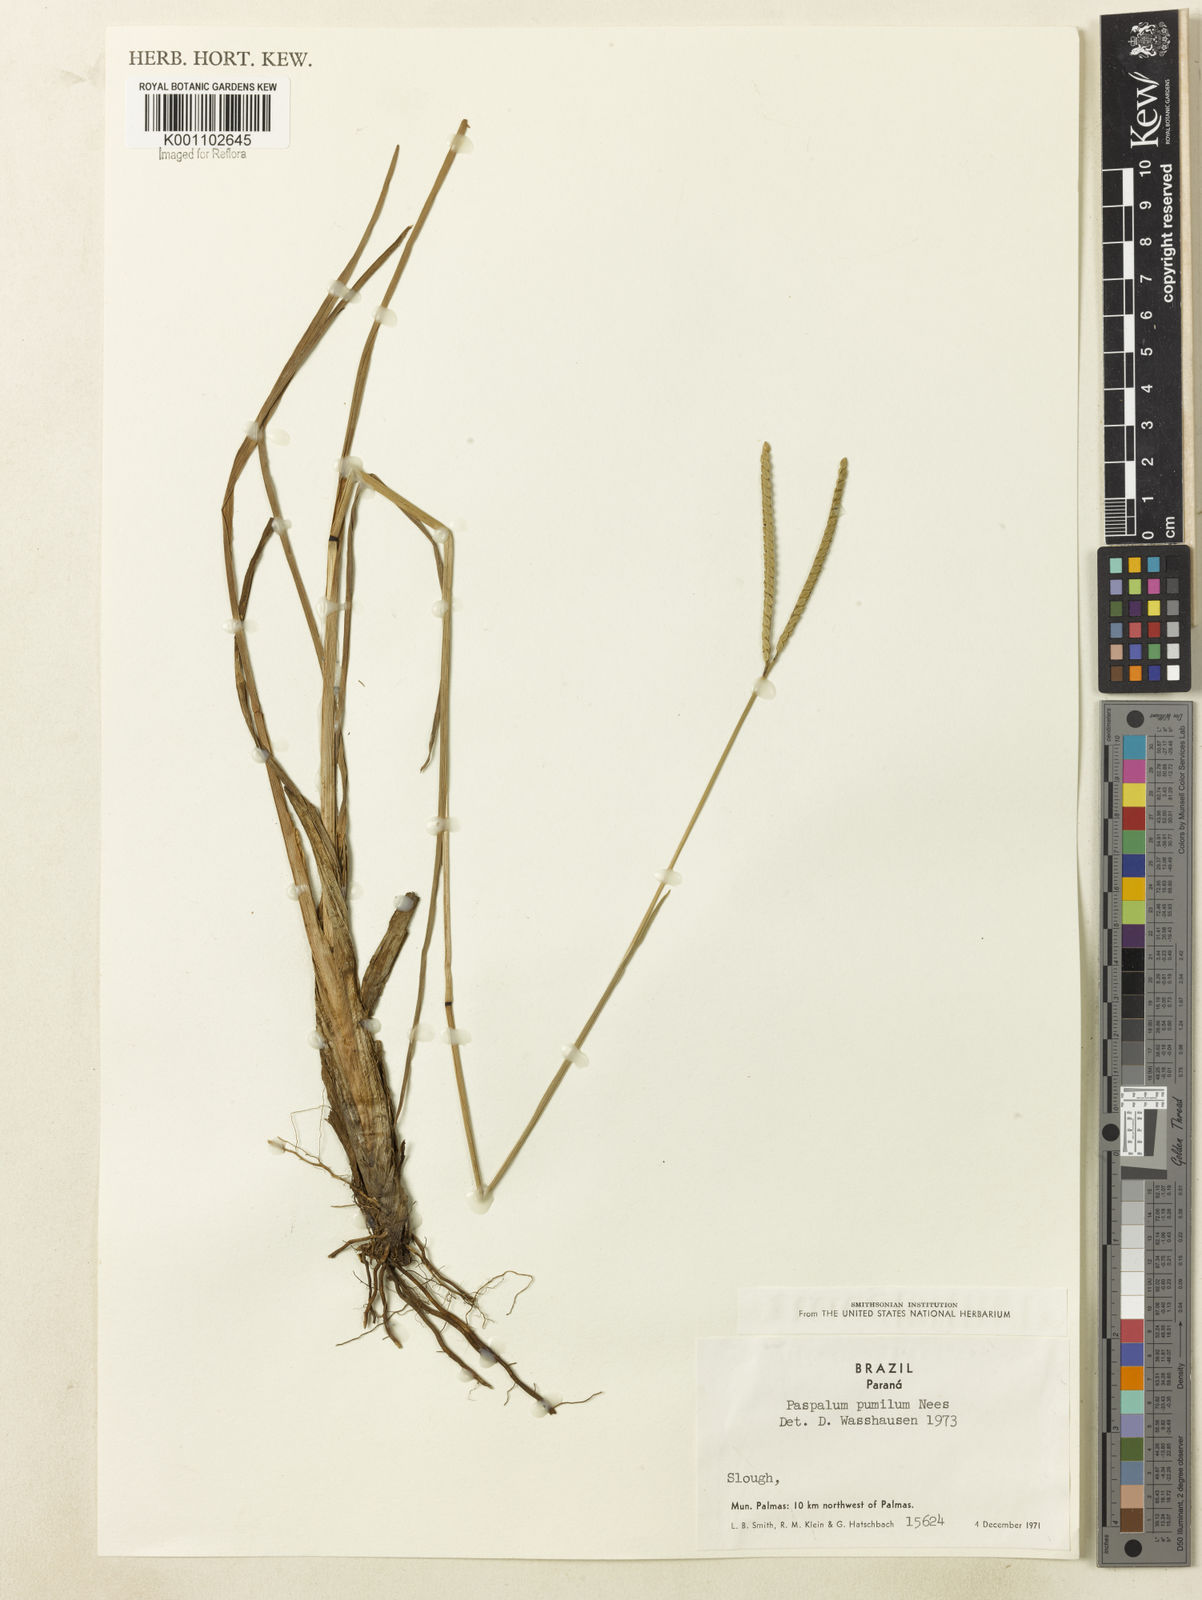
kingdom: Plantae
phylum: Tracheophyta
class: Liliopsida
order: Poales
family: Poaceae
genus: Paspalum
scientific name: Paspalum ramboi
